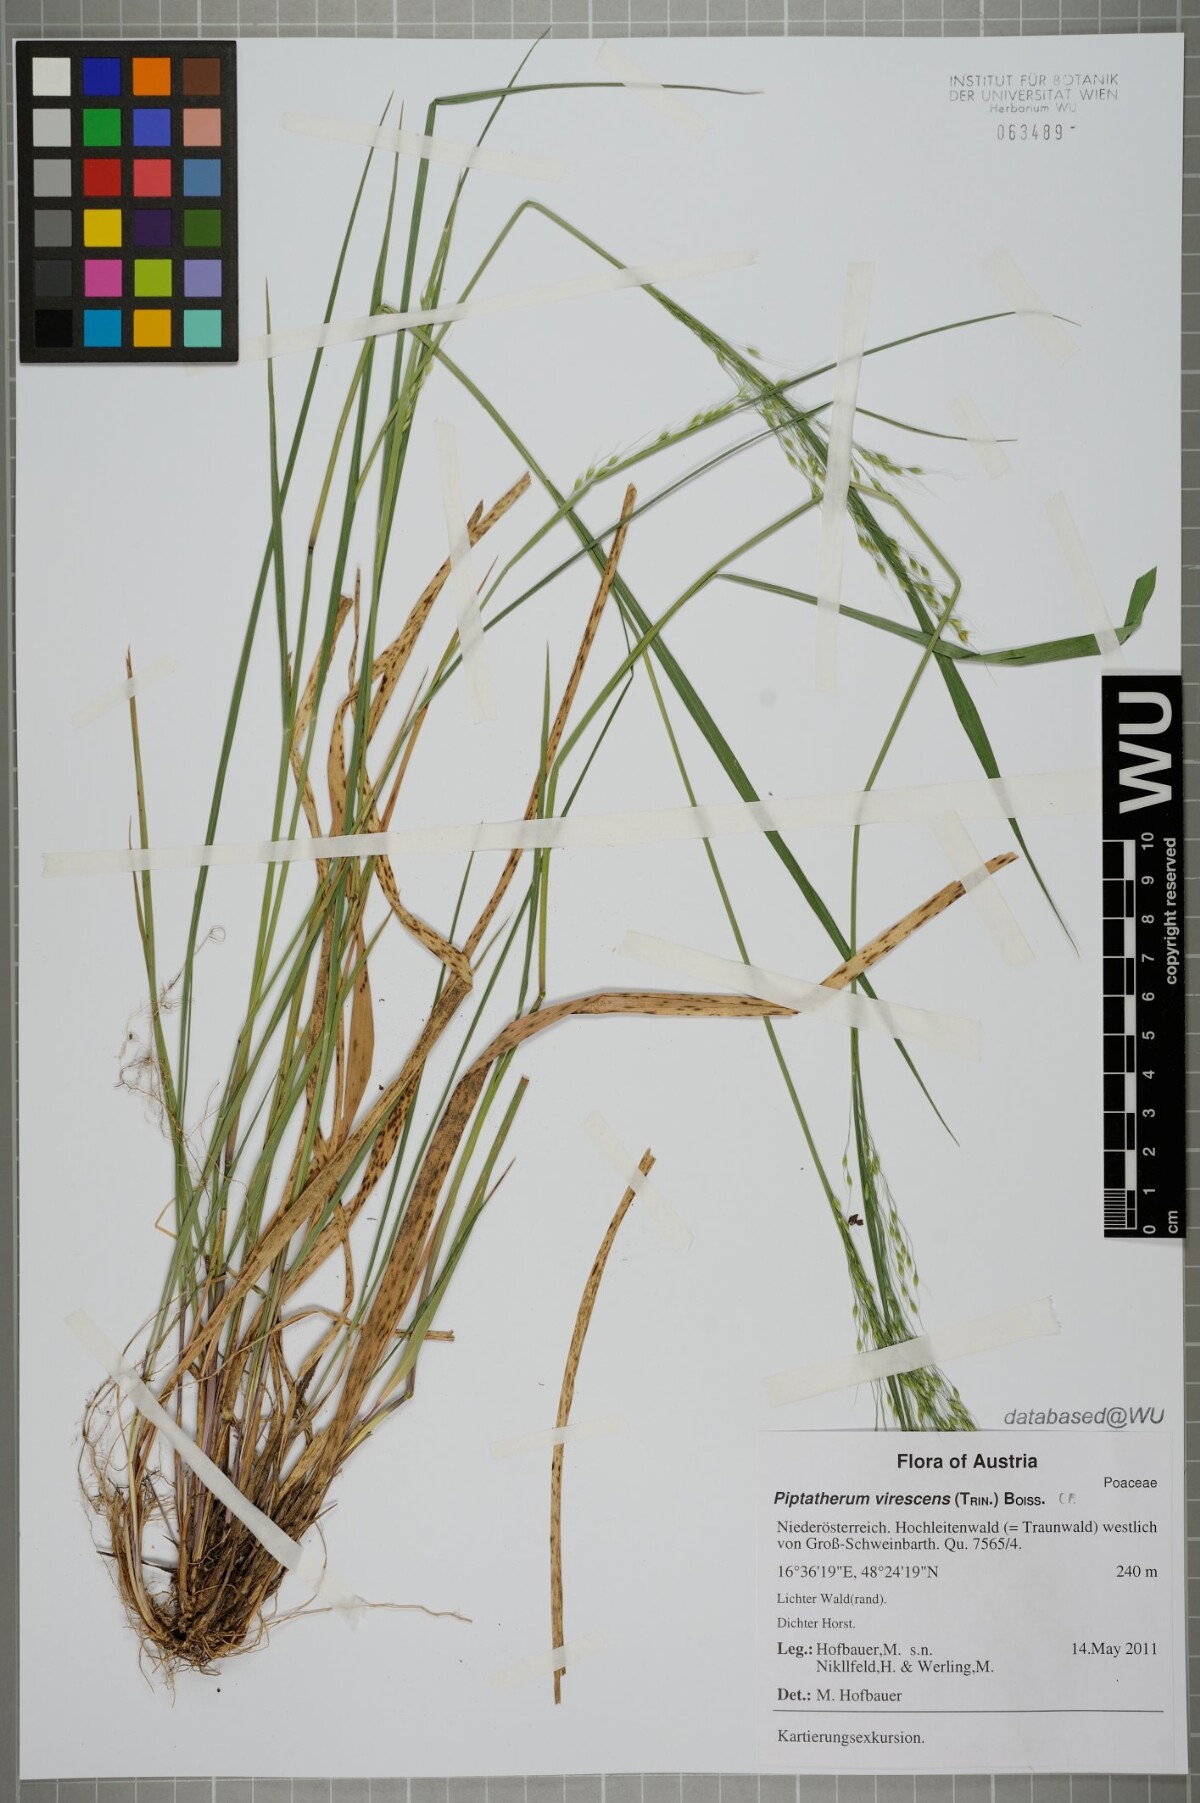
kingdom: Plantae
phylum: Tracheophyta
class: Liliopsida
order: Poales
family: Poaceae
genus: Achnatherum
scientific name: Achnatherum virescens
